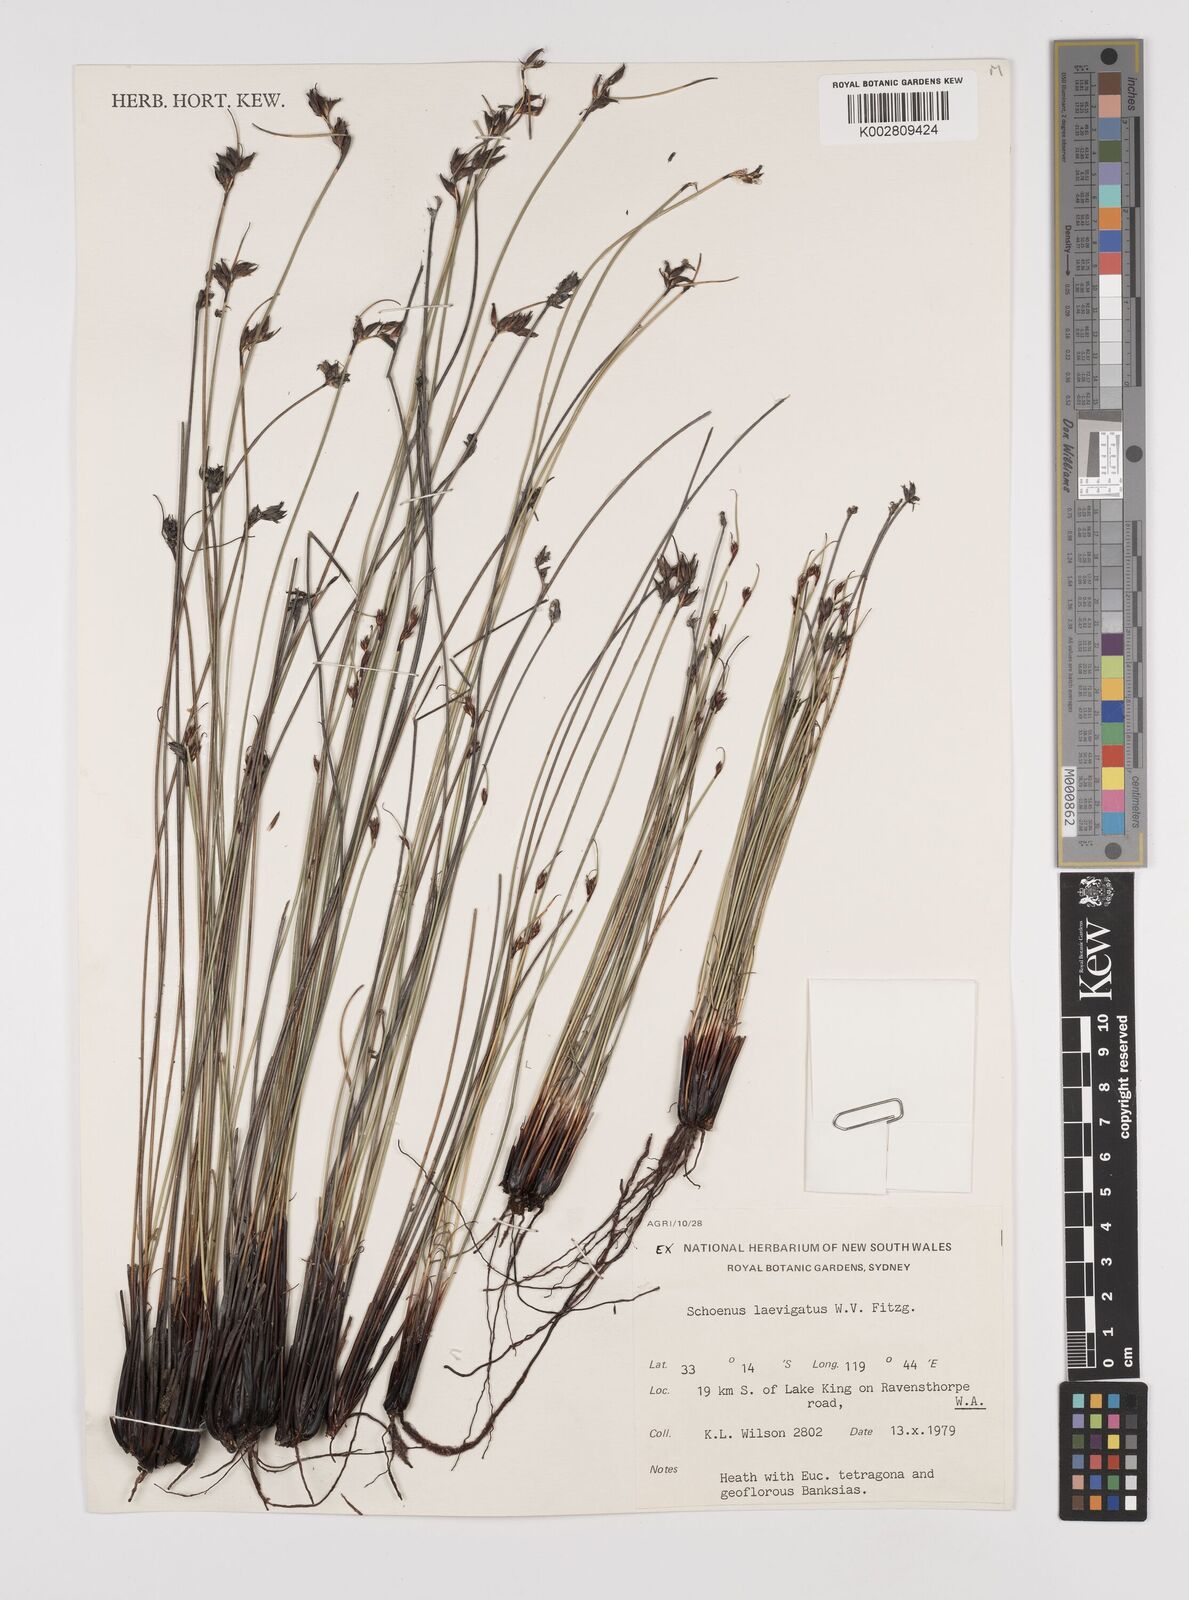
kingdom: Plantae
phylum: Tracheophyta
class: Liliopsida
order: Poales
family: Cyperaceae
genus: Schoenus
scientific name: Schoenus laevigatus
